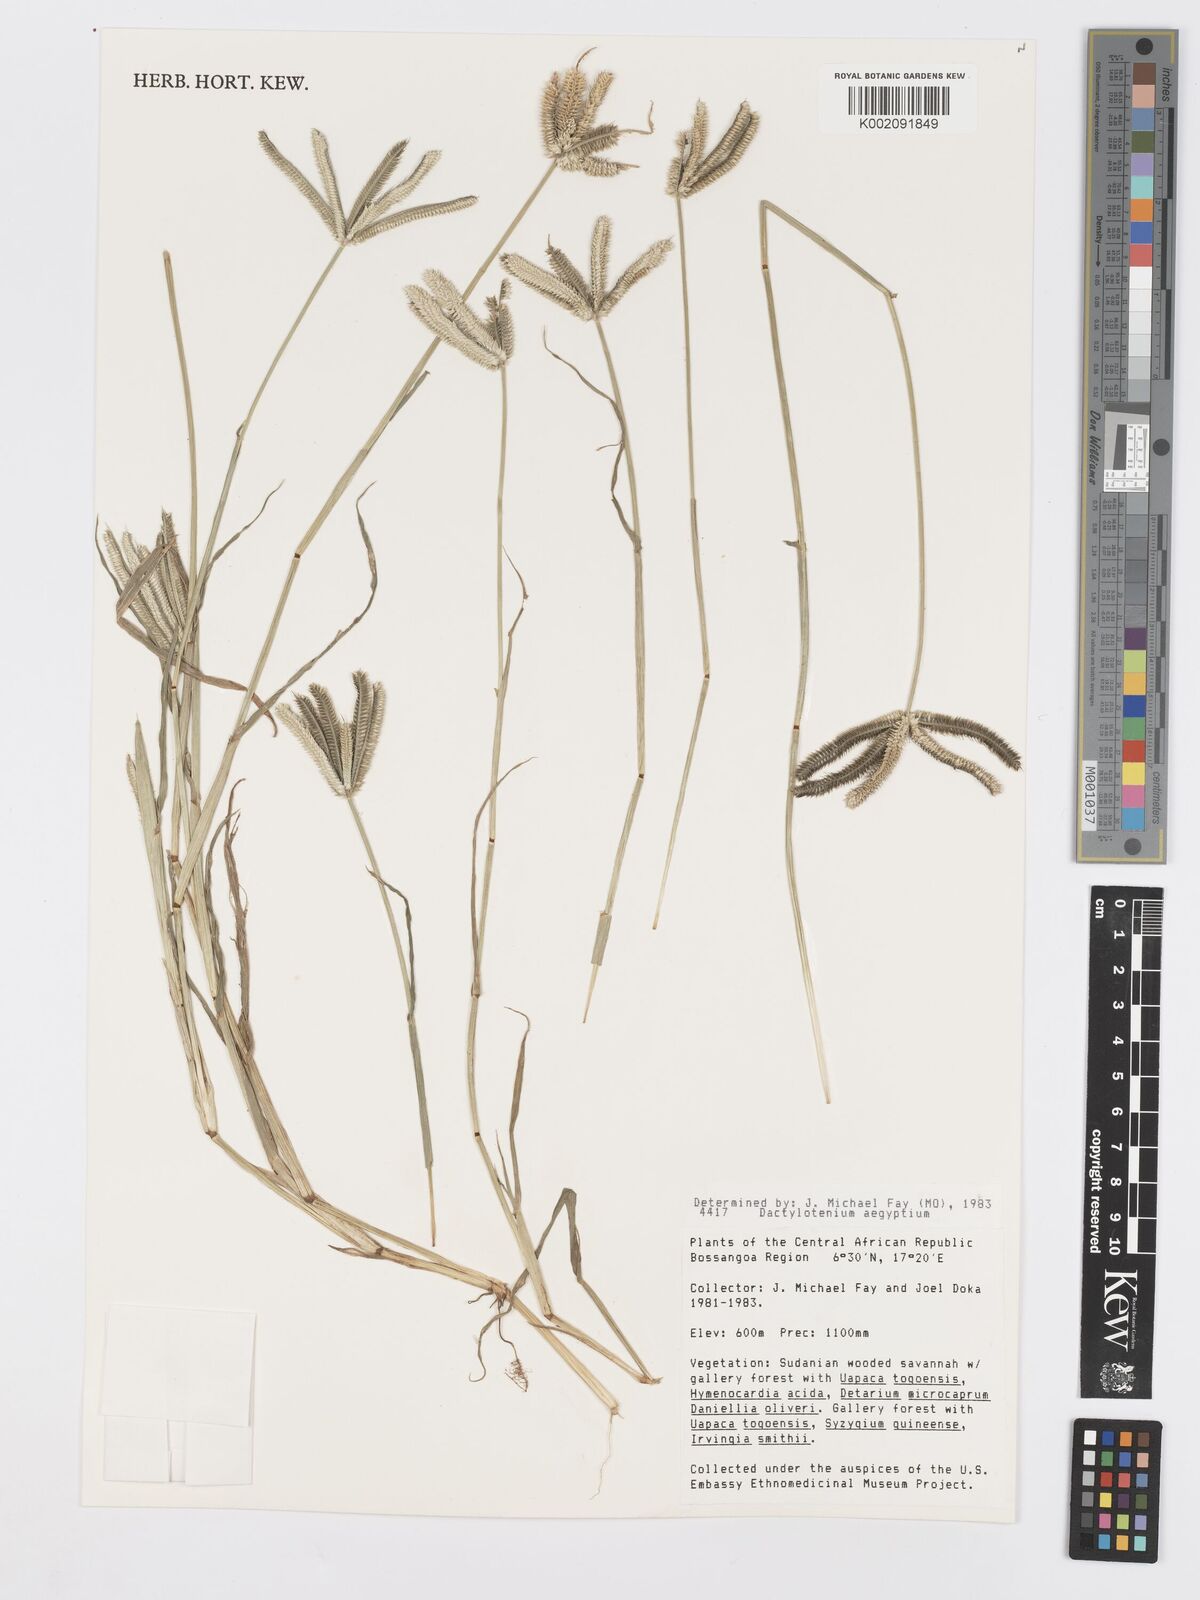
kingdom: Plantae
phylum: Tracheophyta
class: Liliopsida
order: Poales
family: Poaceae
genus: Dactyloctenium
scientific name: Dactyloctenium aegyptium
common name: Egyptian grass
